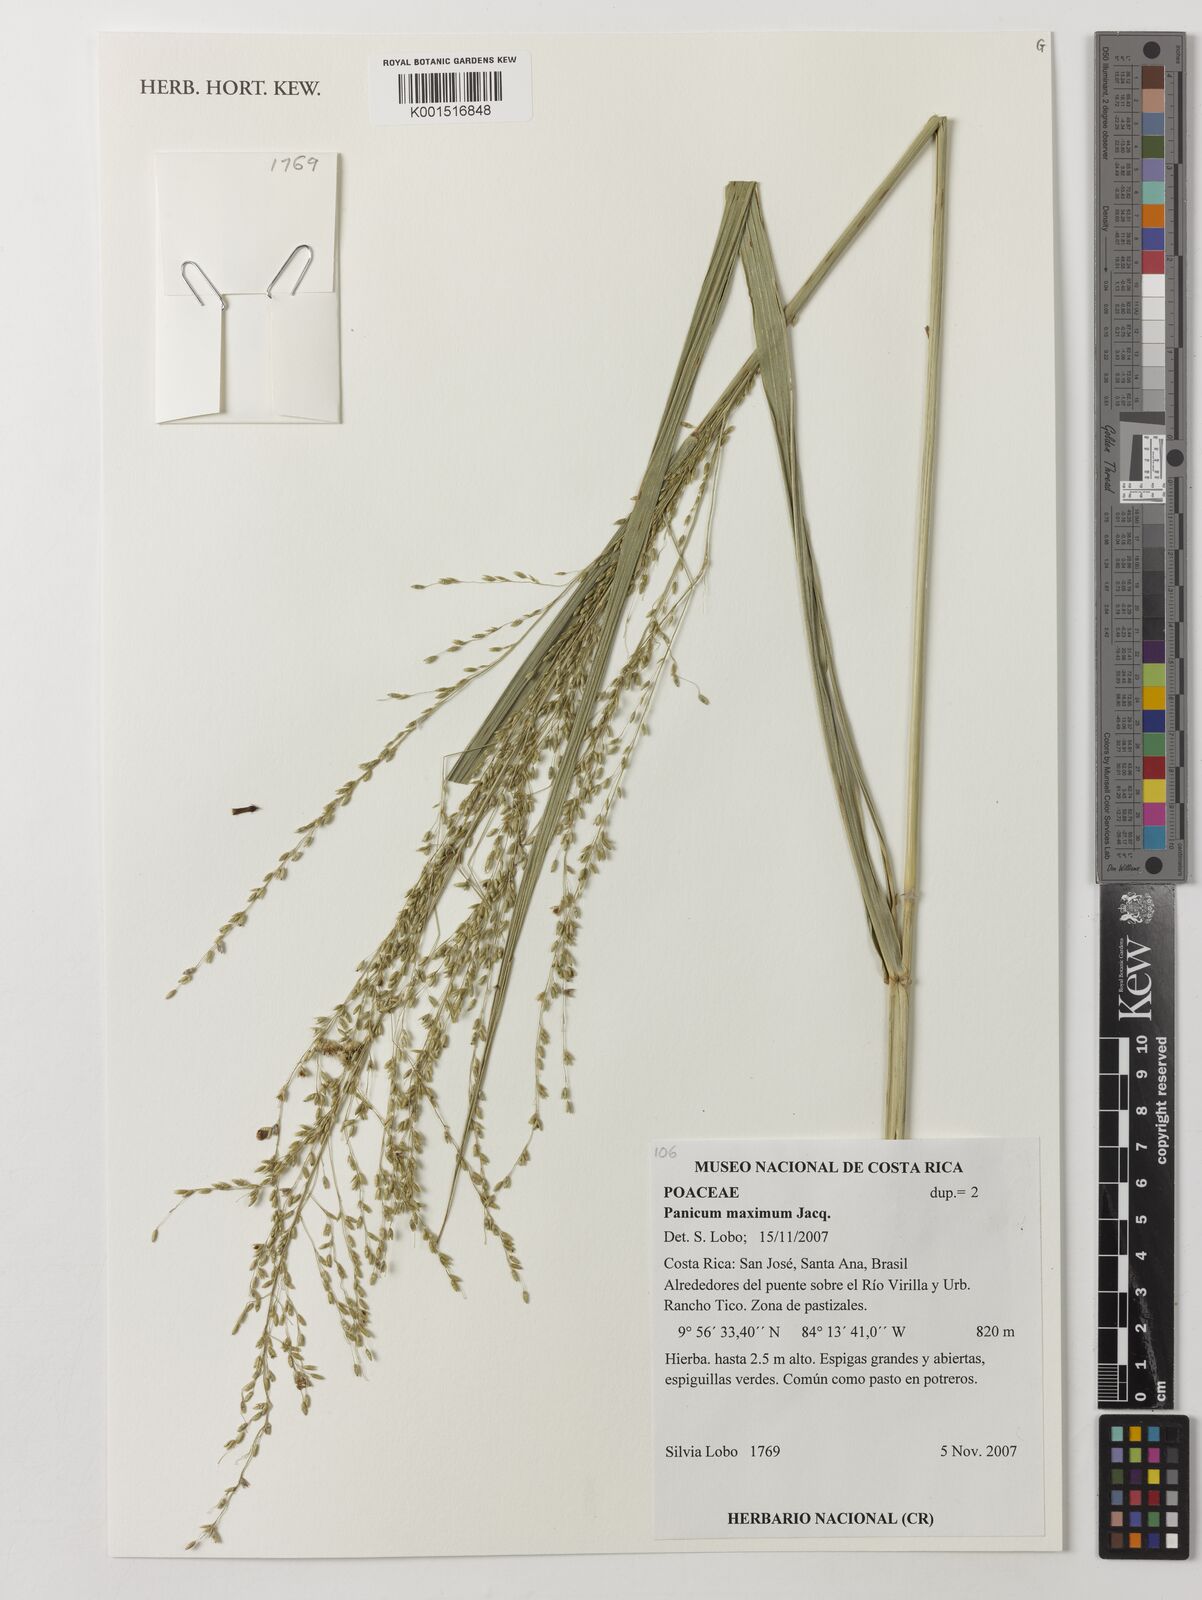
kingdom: Plantae
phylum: Tracheophyta
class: Liliopsida
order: Poales
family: Poaceae
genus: Megathyrsus
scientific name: Megathyrsus maximus
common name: Guineagrass
